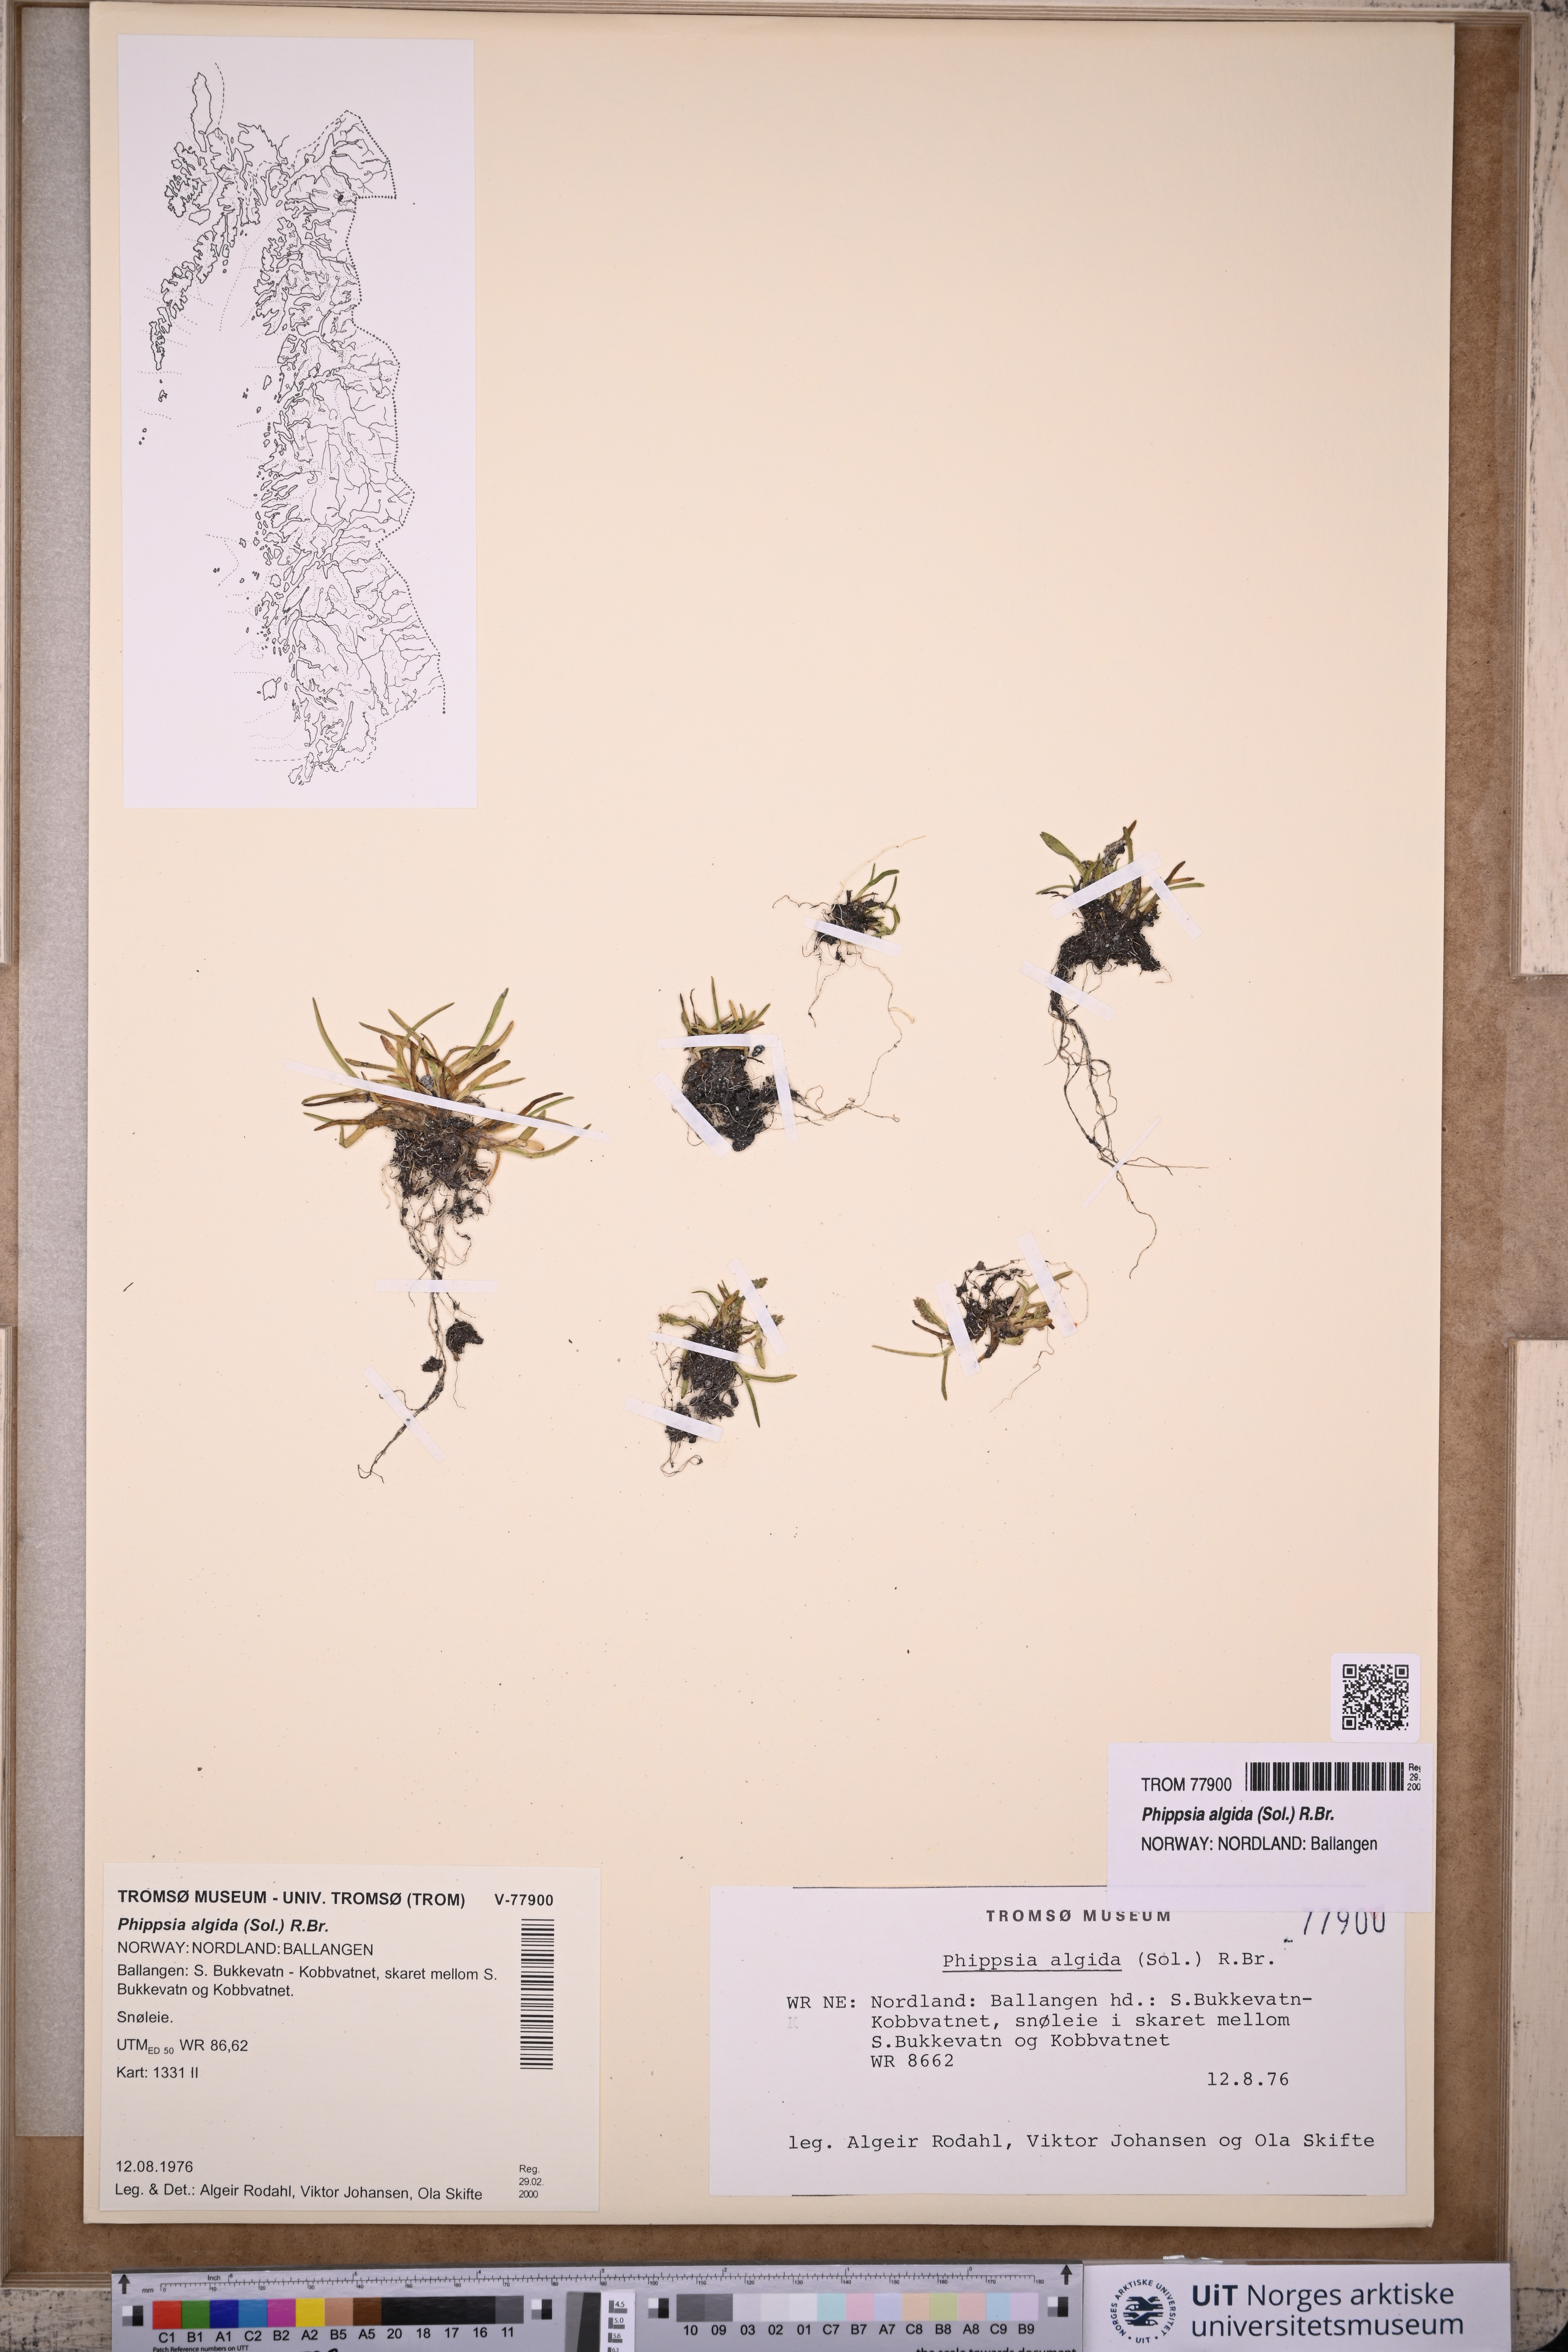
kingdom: Plantae
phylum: Tracheophyta
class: Liliopsida
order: Poales
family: Poaceae
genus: Phippsia
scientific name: Phippsia algida
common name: Ice grass
